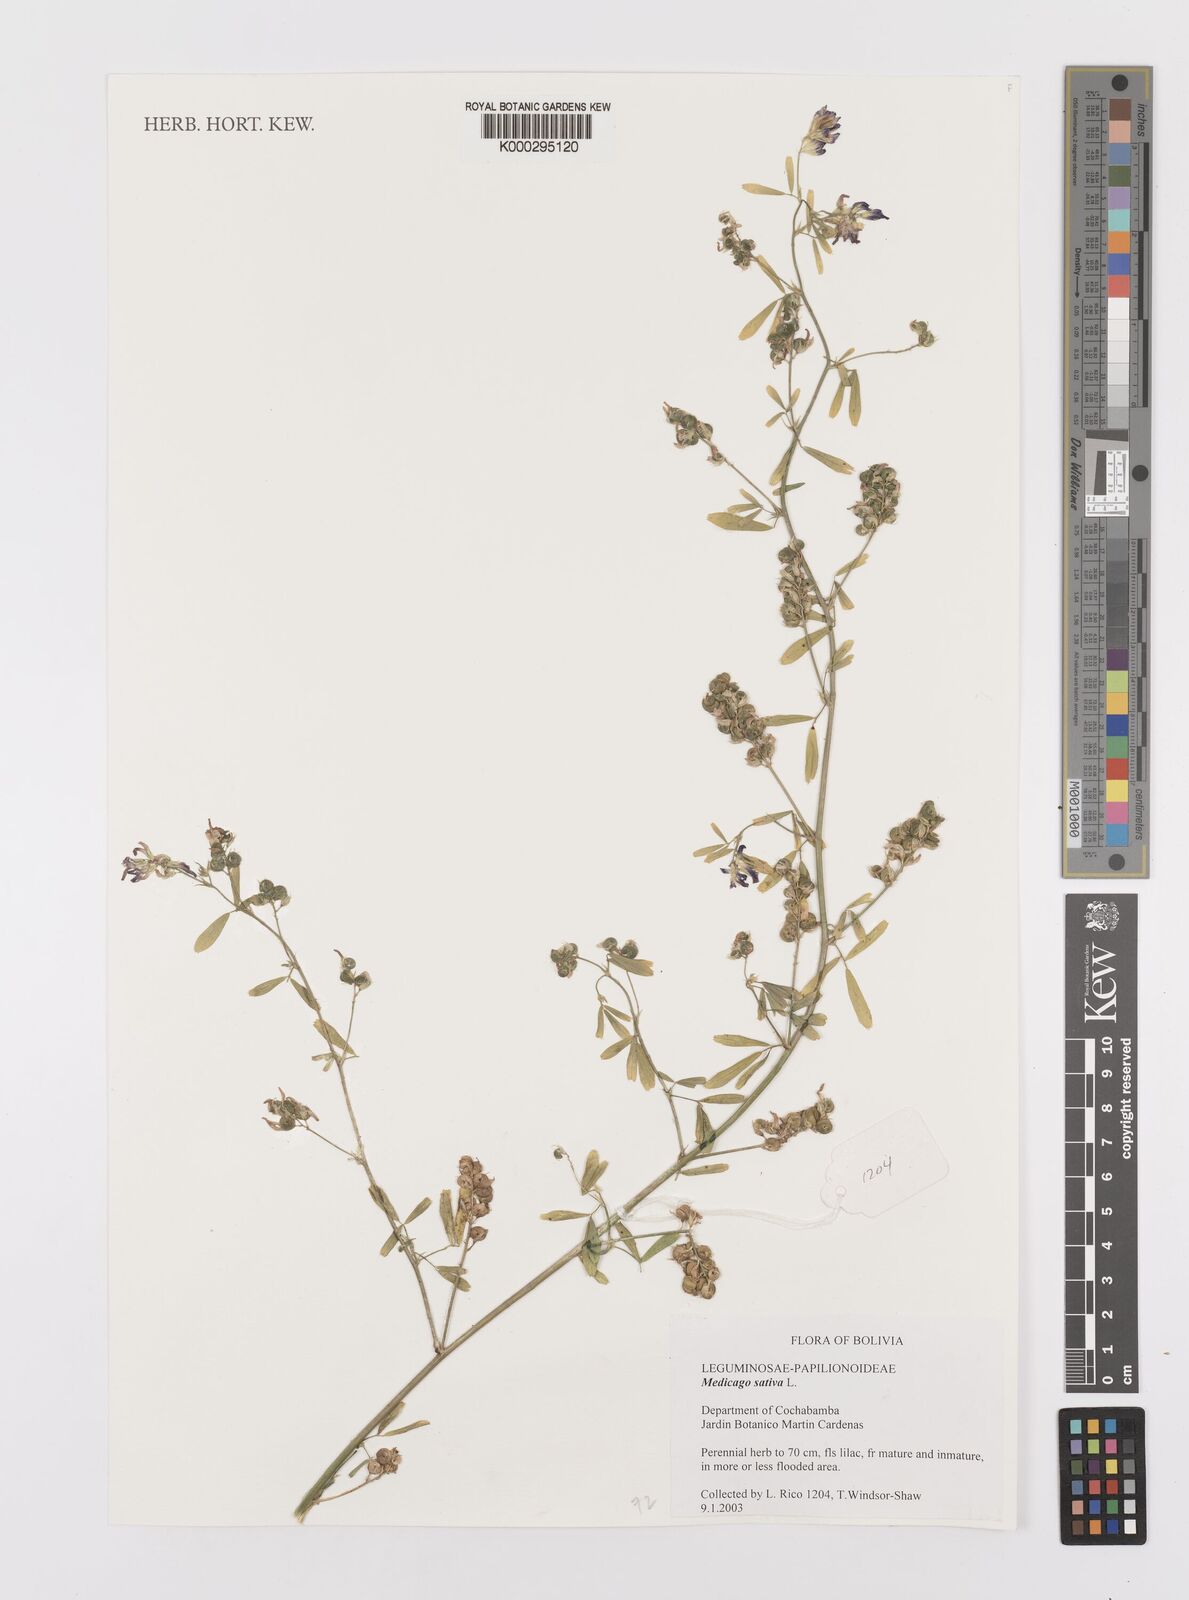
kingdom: Plantae
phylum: Tracheophyta
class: Magnoliopsida
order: Fabales
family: Fabaceae
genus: Medicago
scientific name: Medicago sativa
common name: Alfalfa
